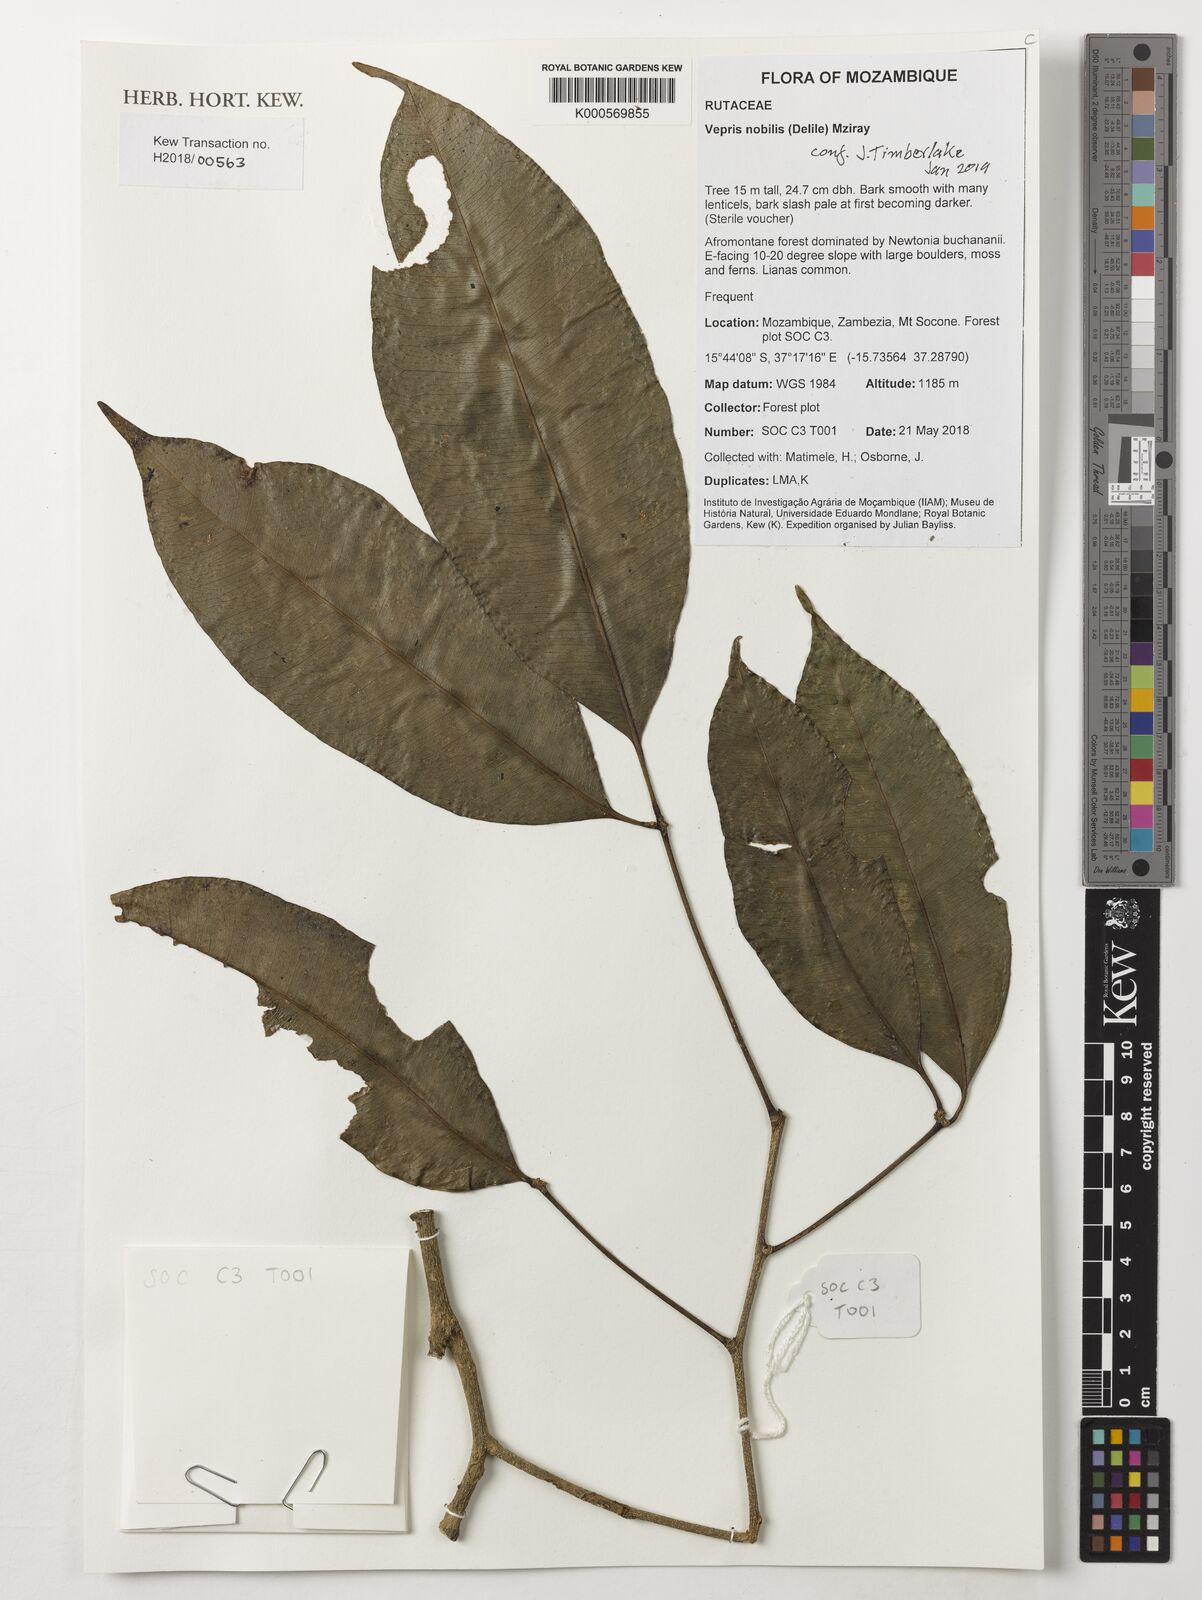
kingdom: Plantae
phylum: Tracheophyta
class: Magnoliopsida
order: Sapindales
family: Rutaceae
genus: Vepris
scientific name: Vepris nobilis
